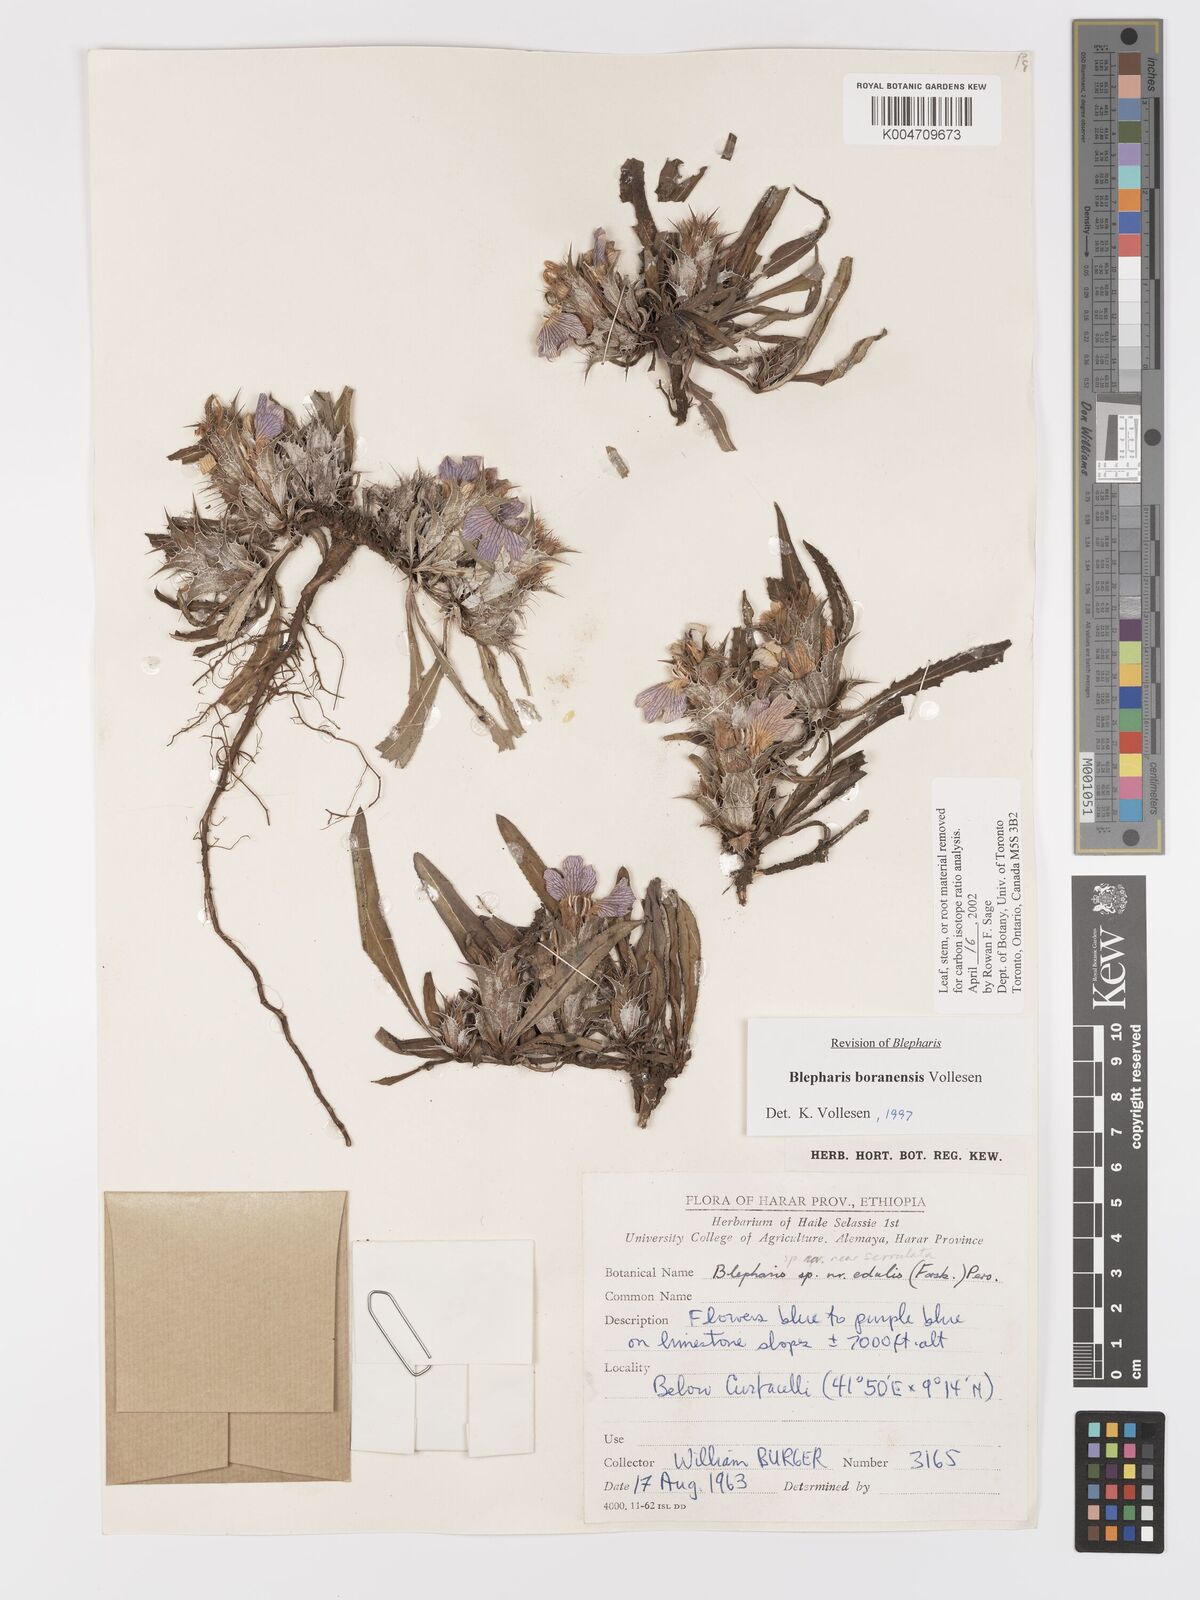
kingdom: Plantae
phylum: Tracheophyta
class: Magnoliopsida
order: Lamiales
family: Acanthaceae
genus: Blepharis
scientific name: Blepharis boranensis
